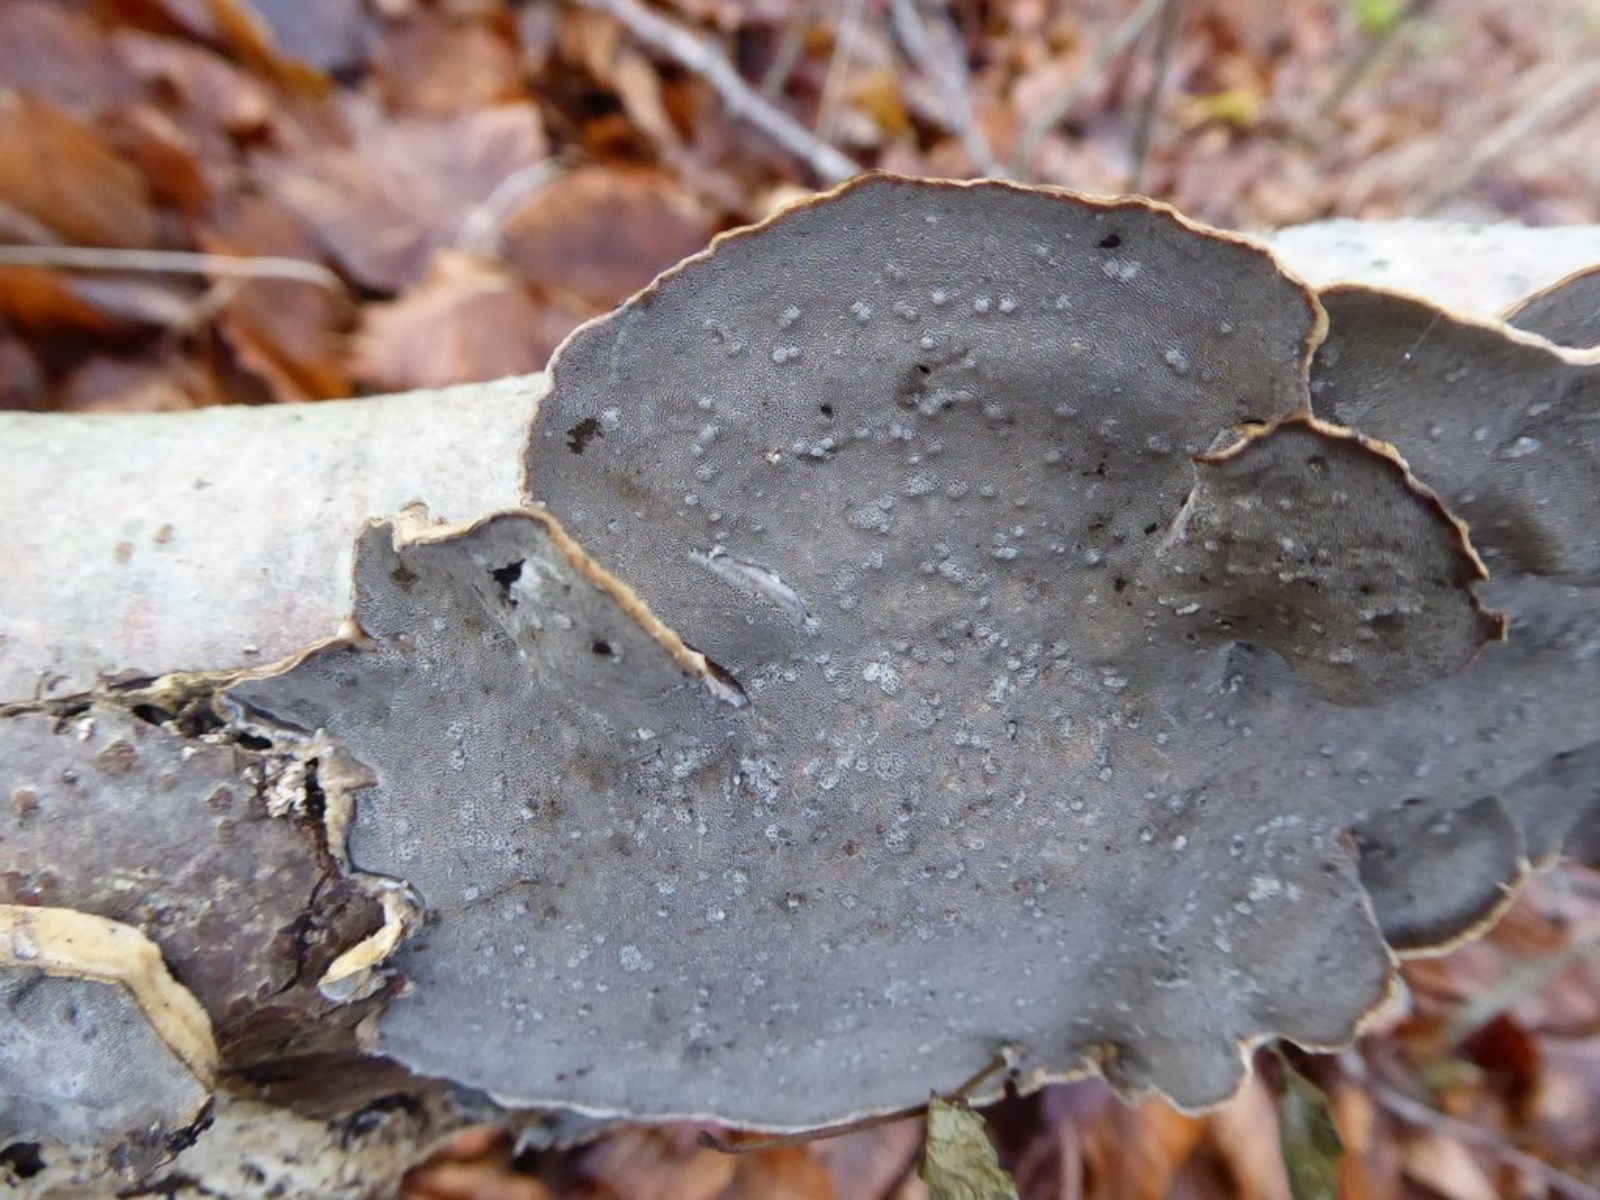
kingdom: Fungi
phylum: Basidiomycota
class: Agaricomycetes
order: Polyporales
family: Phanerochaetaceae
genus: Bjerkandera
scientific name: Bjerkandera adusta
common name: sveden sodporesvamp
